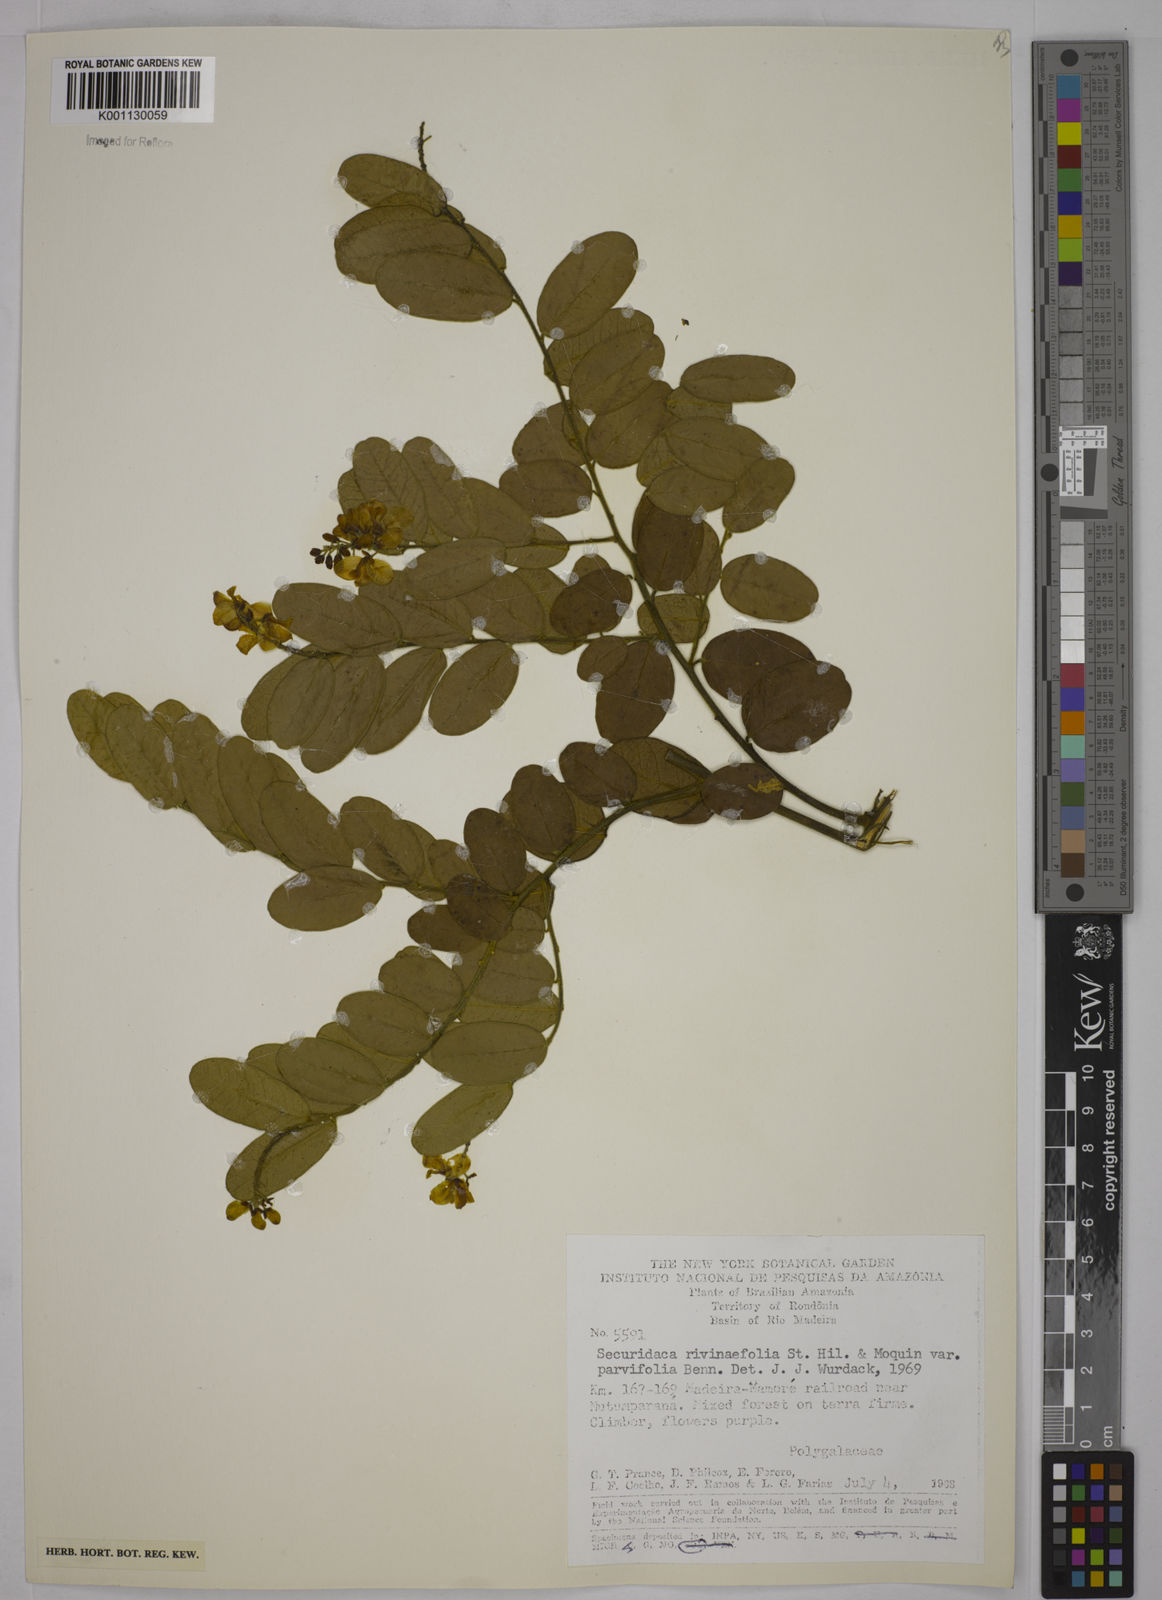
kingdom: Plantae
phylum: Tracheophyta
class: Magnoliopsida
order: Fabales
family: Polygalaceae
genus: Securidaca
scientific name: Securidaca rivinifolia
